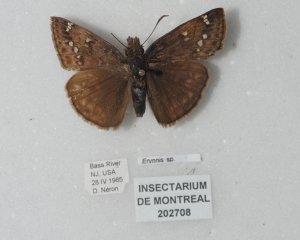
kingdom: Animalia
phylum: Arthropoda
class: Insecta
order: Lepidoptera
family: Hesperiidae
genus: Gesta
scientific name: Gesta
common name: Juvenal's Duskywing
